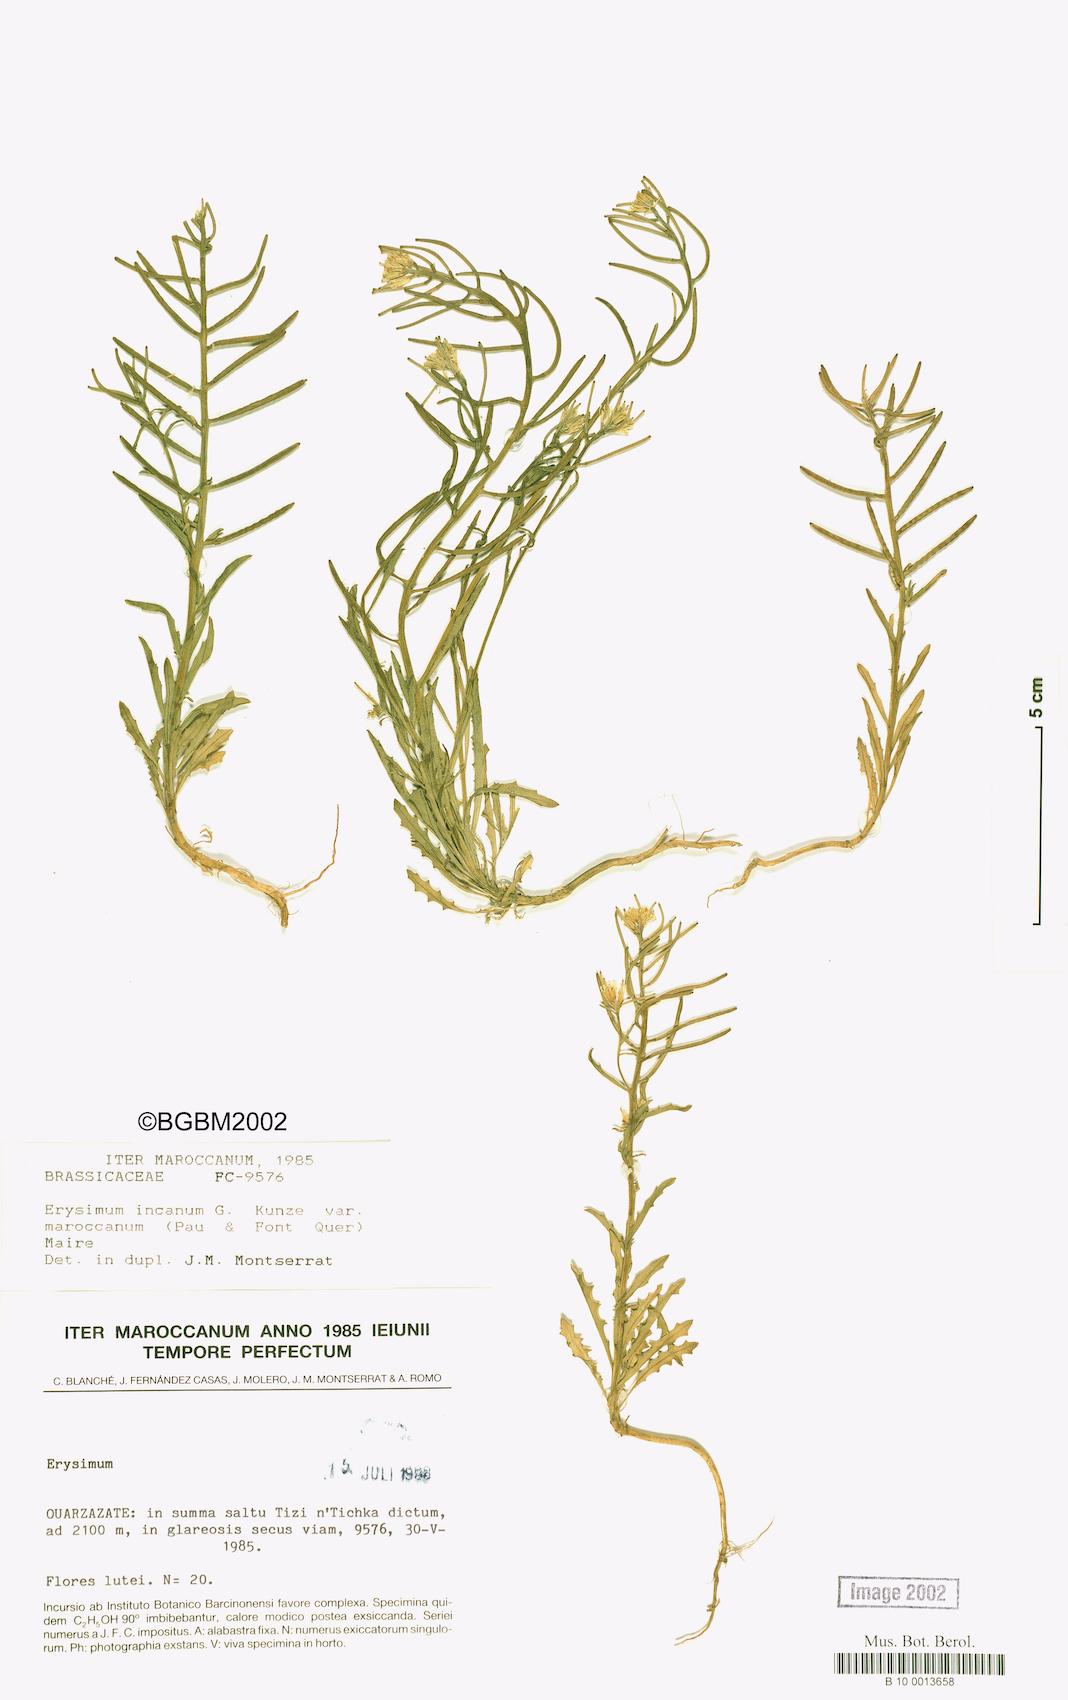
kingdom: Plantae
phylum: Tracheophyta
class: Magnoliopsida
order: Brassicales
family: Brassicaceae
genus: Erysimum
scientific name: Erysimum incanum
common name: Hoary treacle mustard
